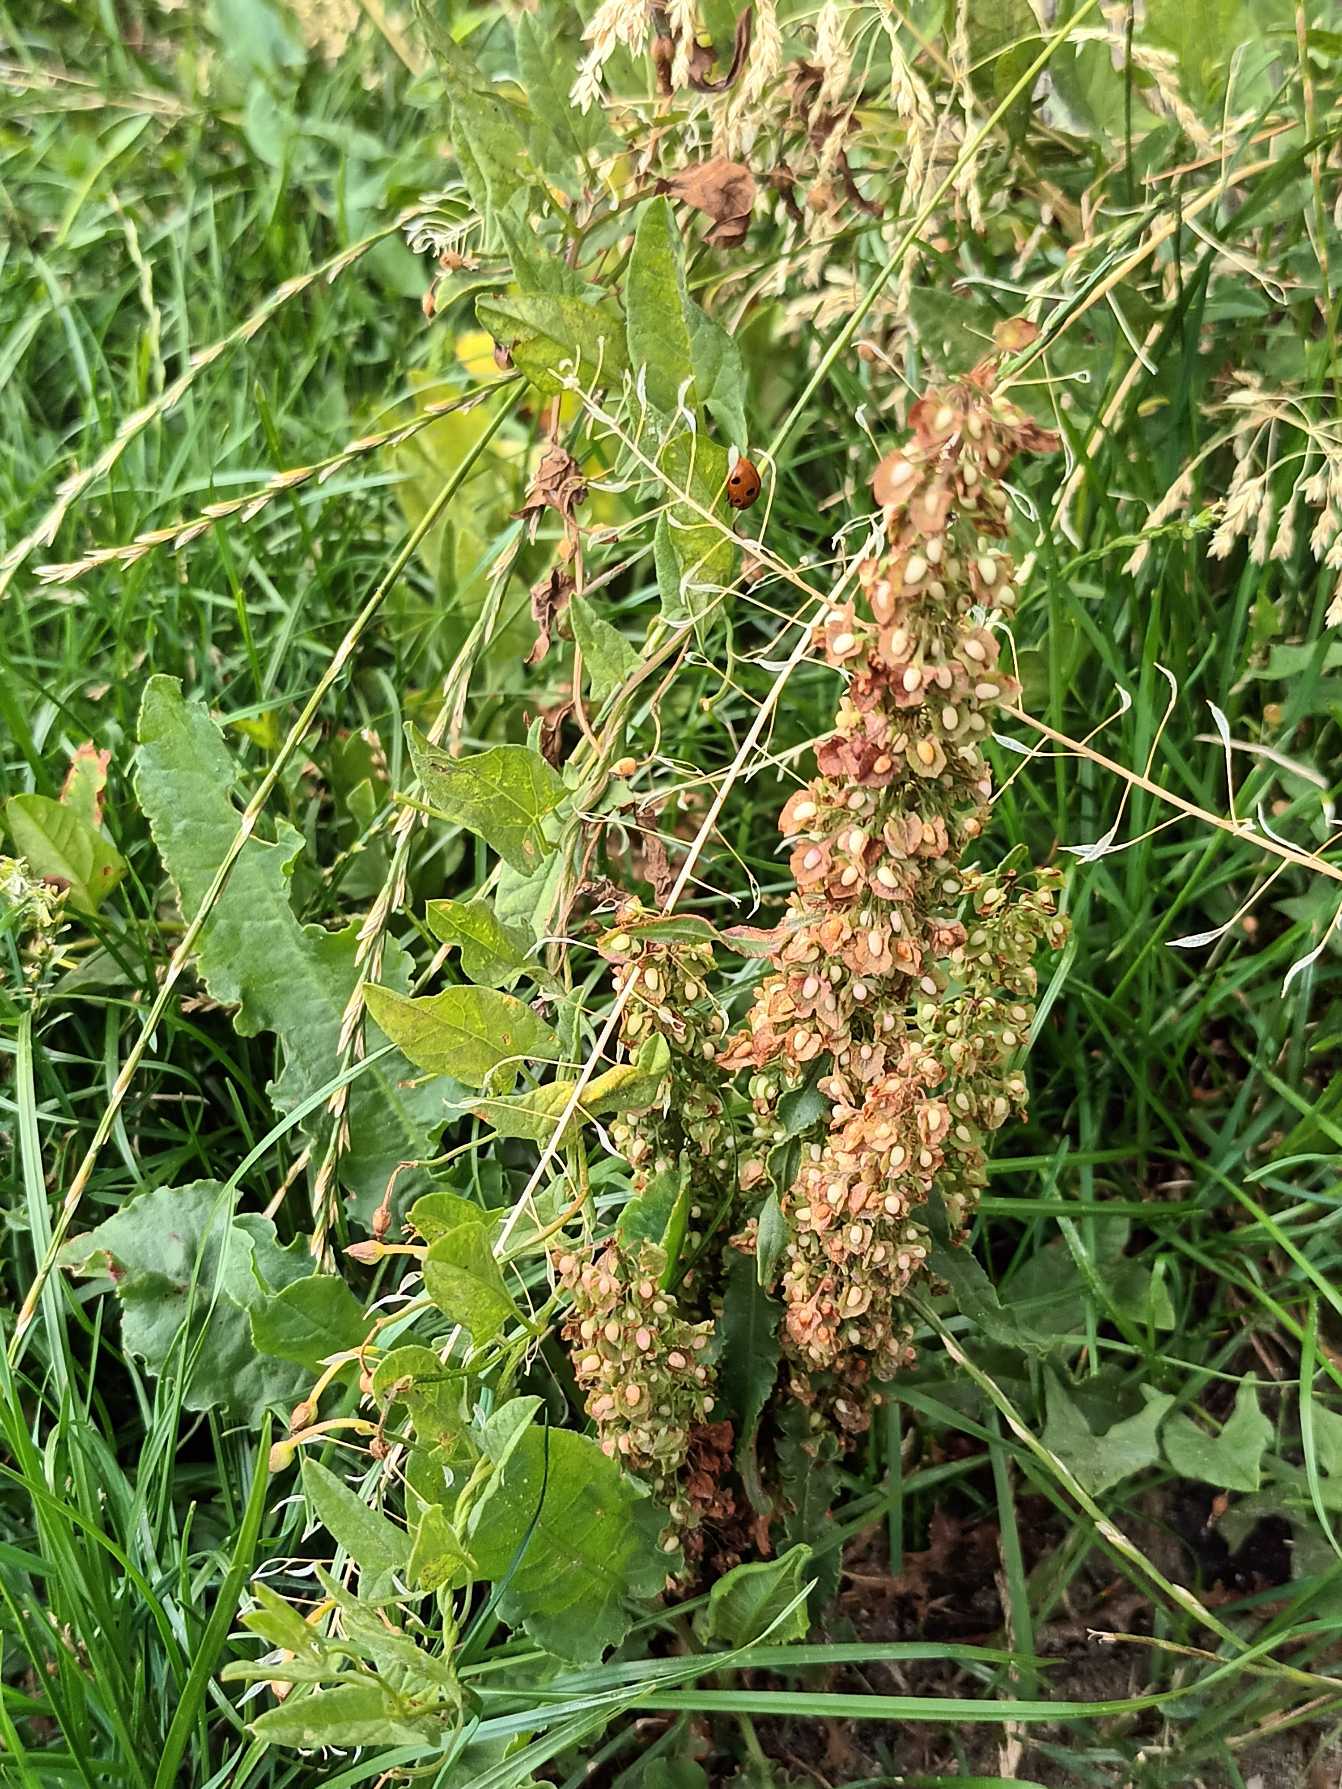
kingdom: Plantae
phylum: Tracheophyta
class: Magnoliopsida
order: Caryophyllales
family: Polygonaceae
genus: Rumex
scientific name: Rumex crispus
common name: Kruset skræppe
